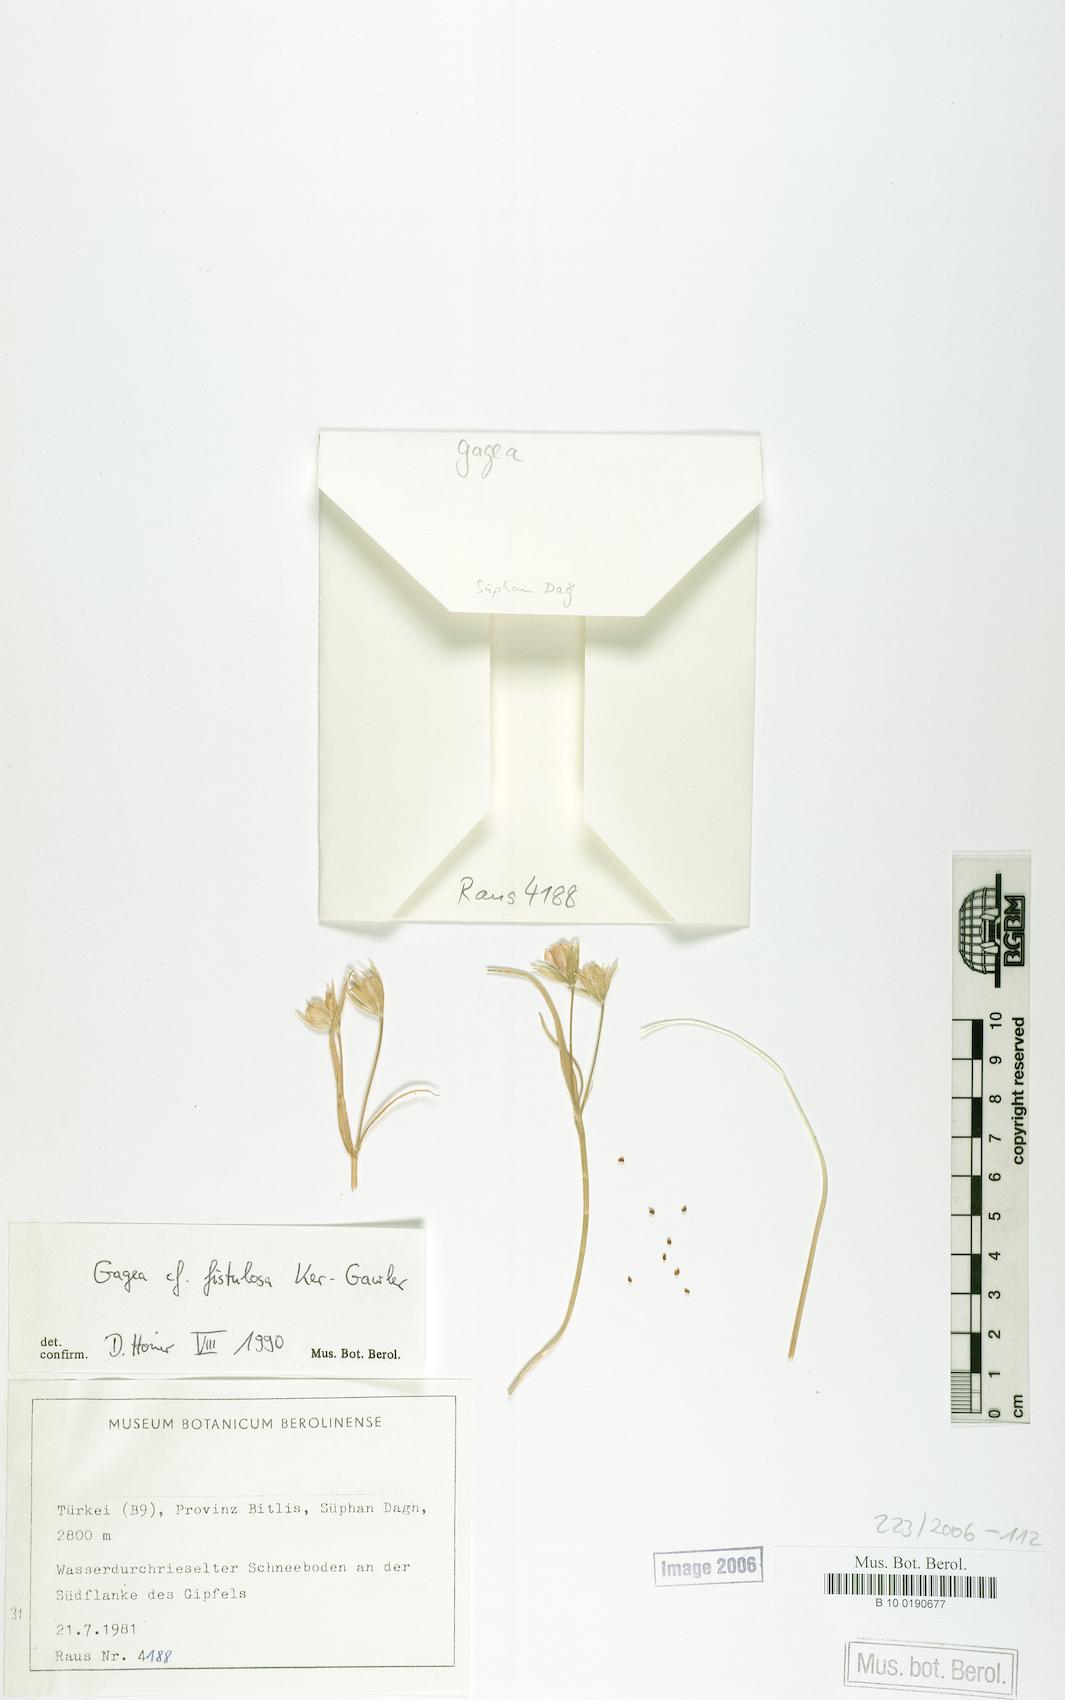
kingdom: Plantae
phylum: Tracheophyta
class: Liliopsida
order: Liliales
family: Liliaceae
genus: Gagea
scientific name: Gagea bohemica
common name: Early star-of-bethlehem
